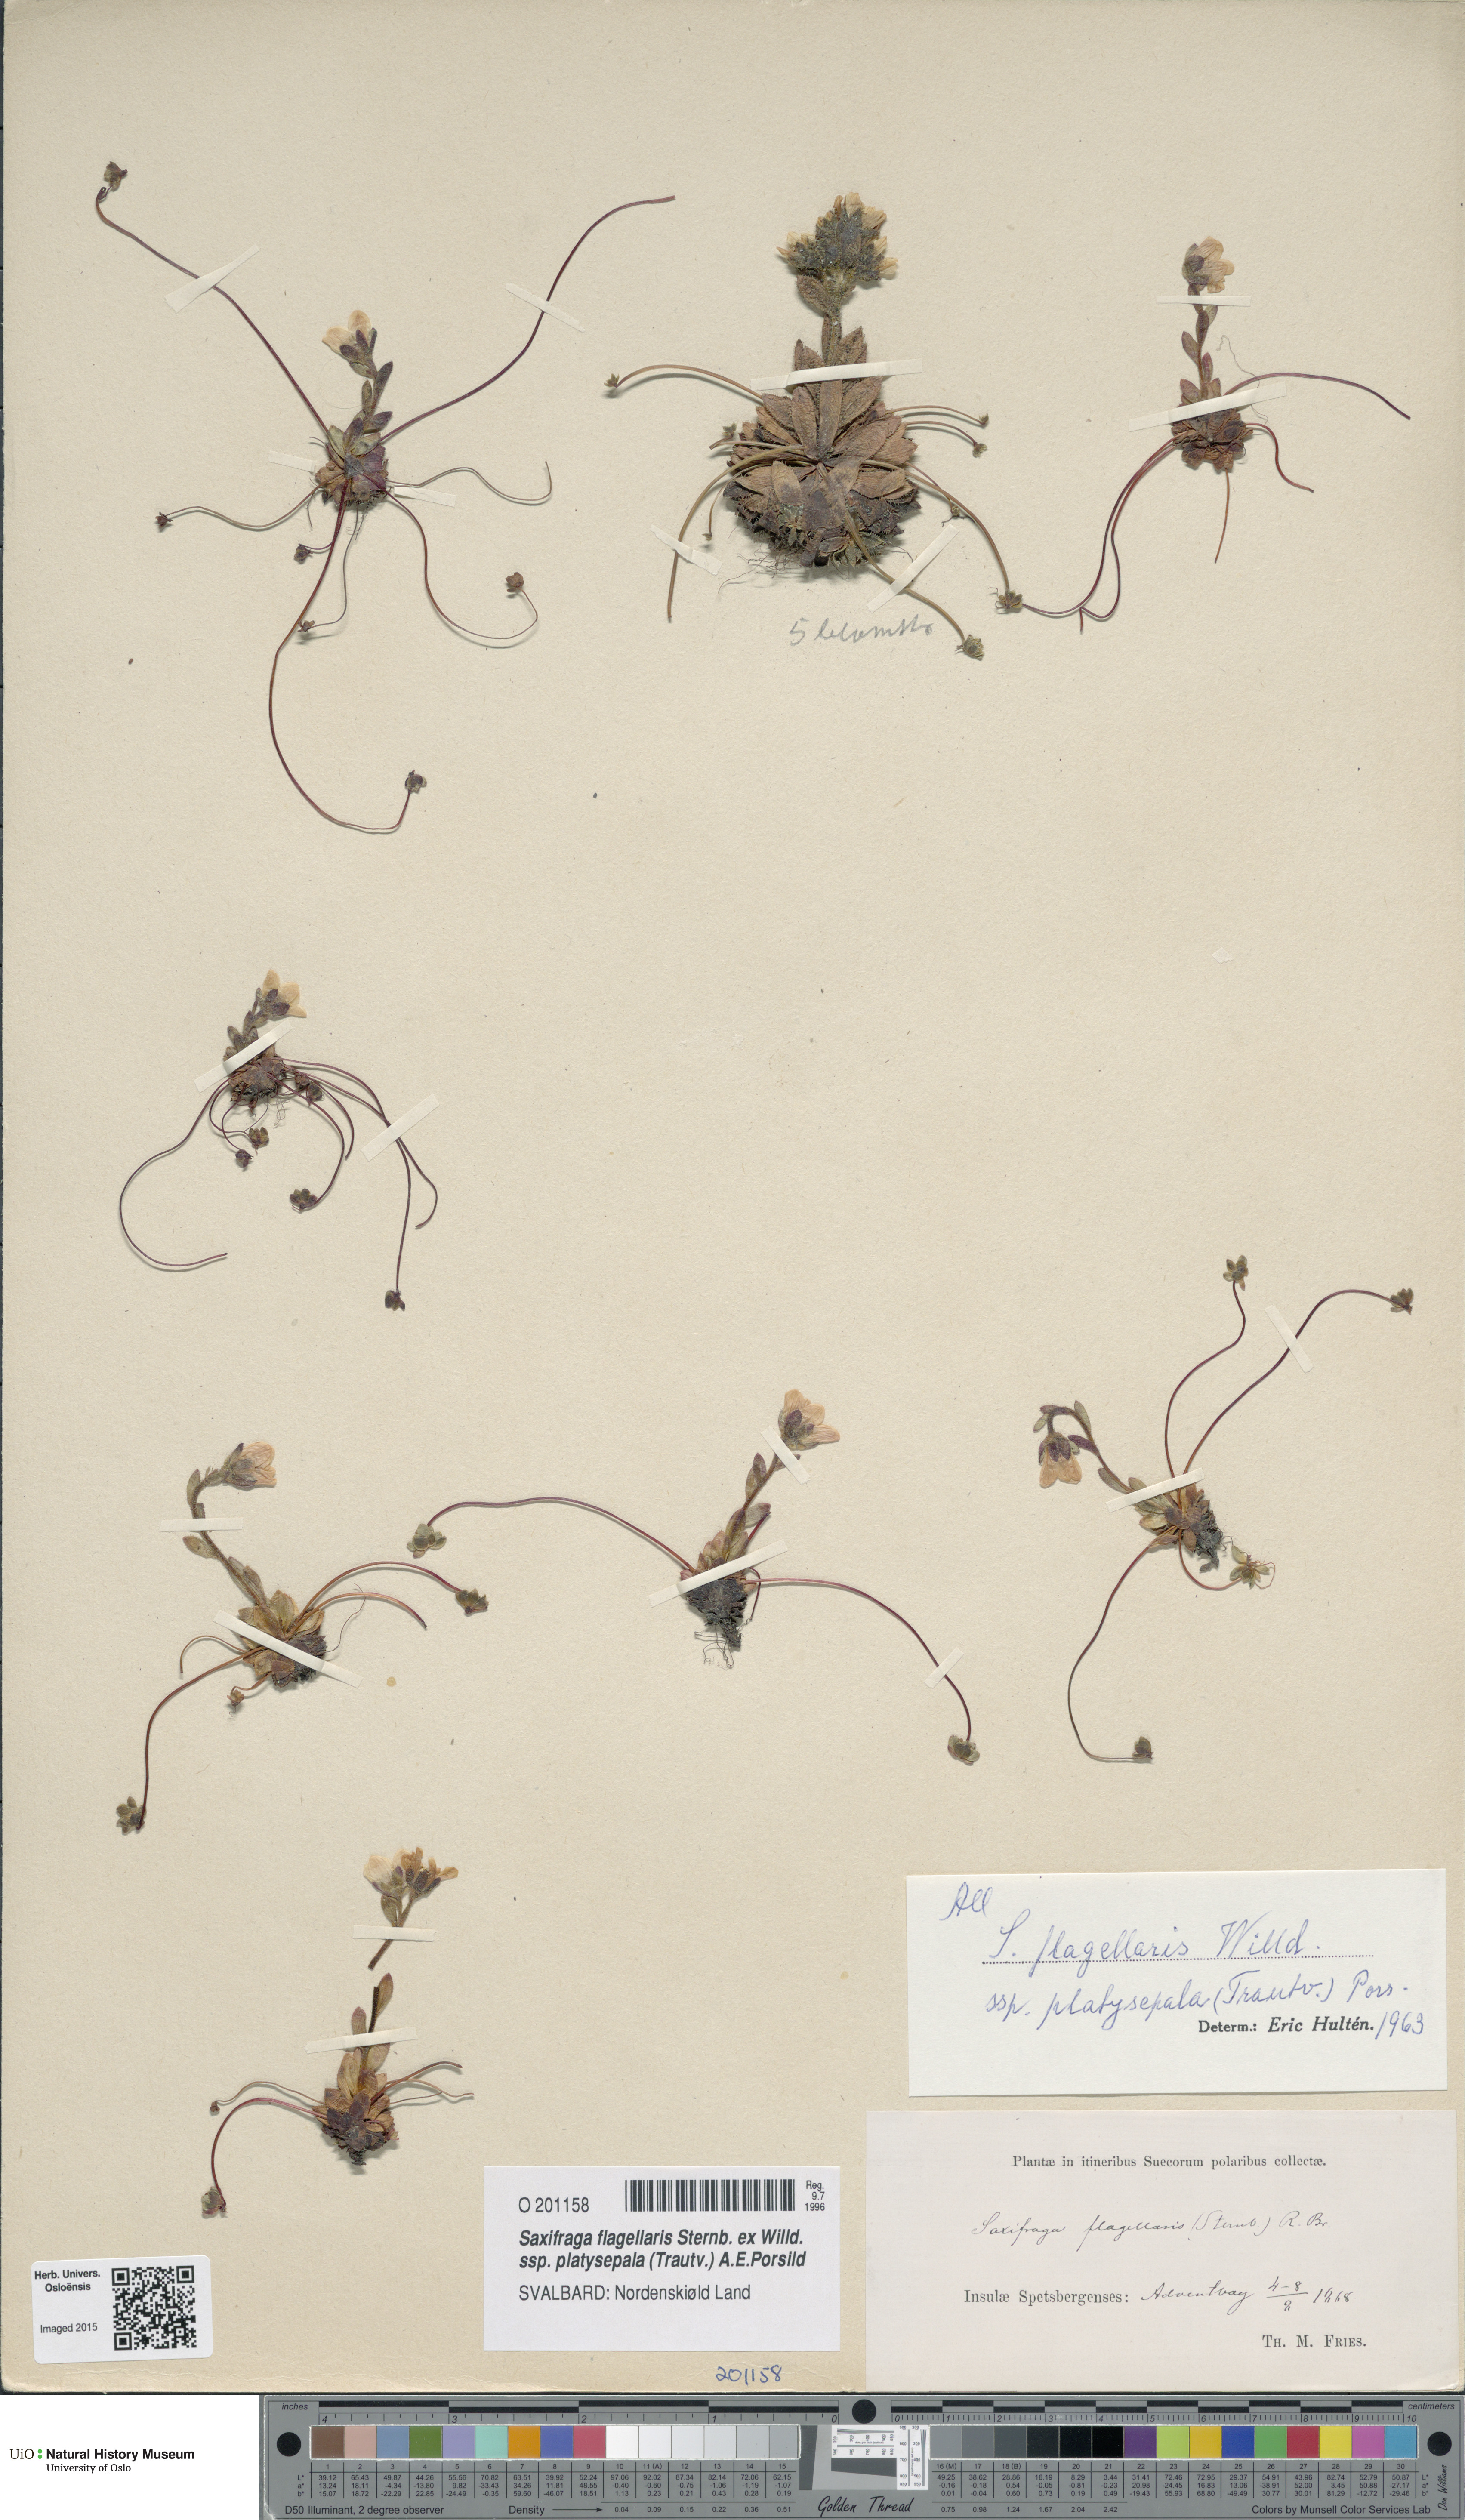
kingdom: Plantae
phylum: Tracheophyta
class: Magnoliopsida
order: Saxifragales
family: Saxifragaceae
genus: Saxifraga
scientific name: Saxifraga platysepala
